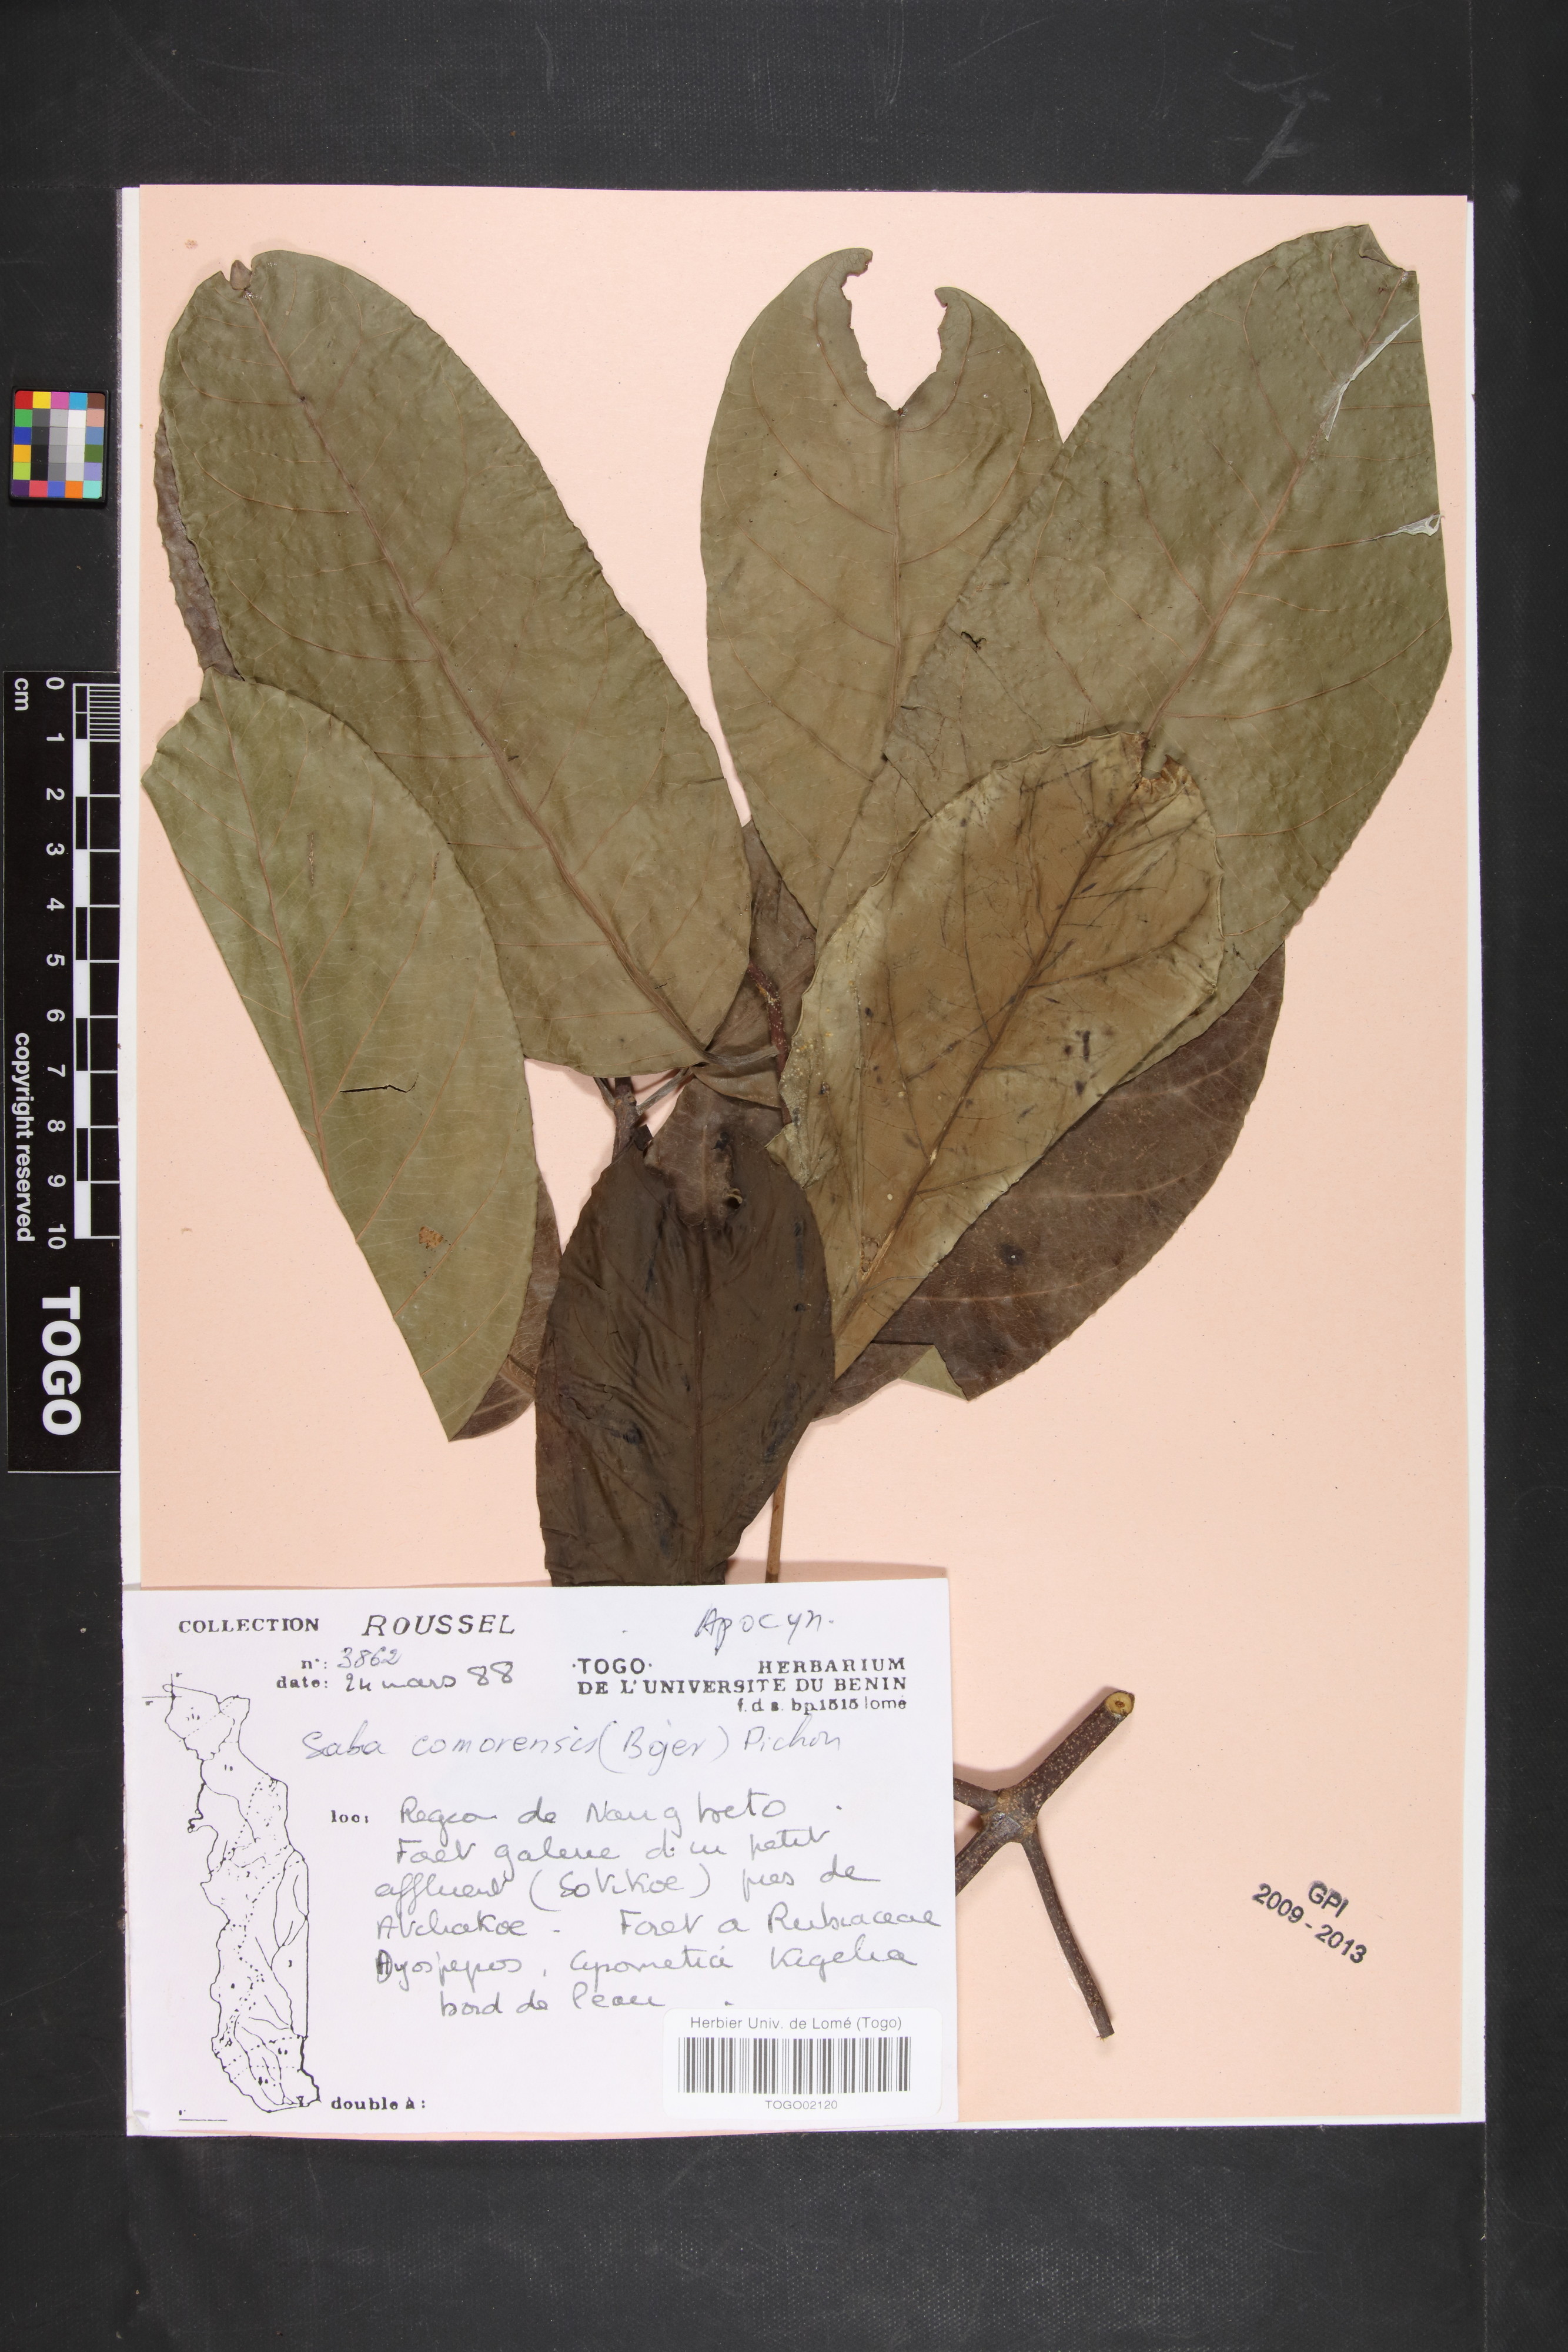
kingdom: Plantae
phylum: Tracheophyta
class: Magnoliopsida
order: Gentianales
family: Apocynaceae
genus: Saba
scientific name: Saba comorensis
